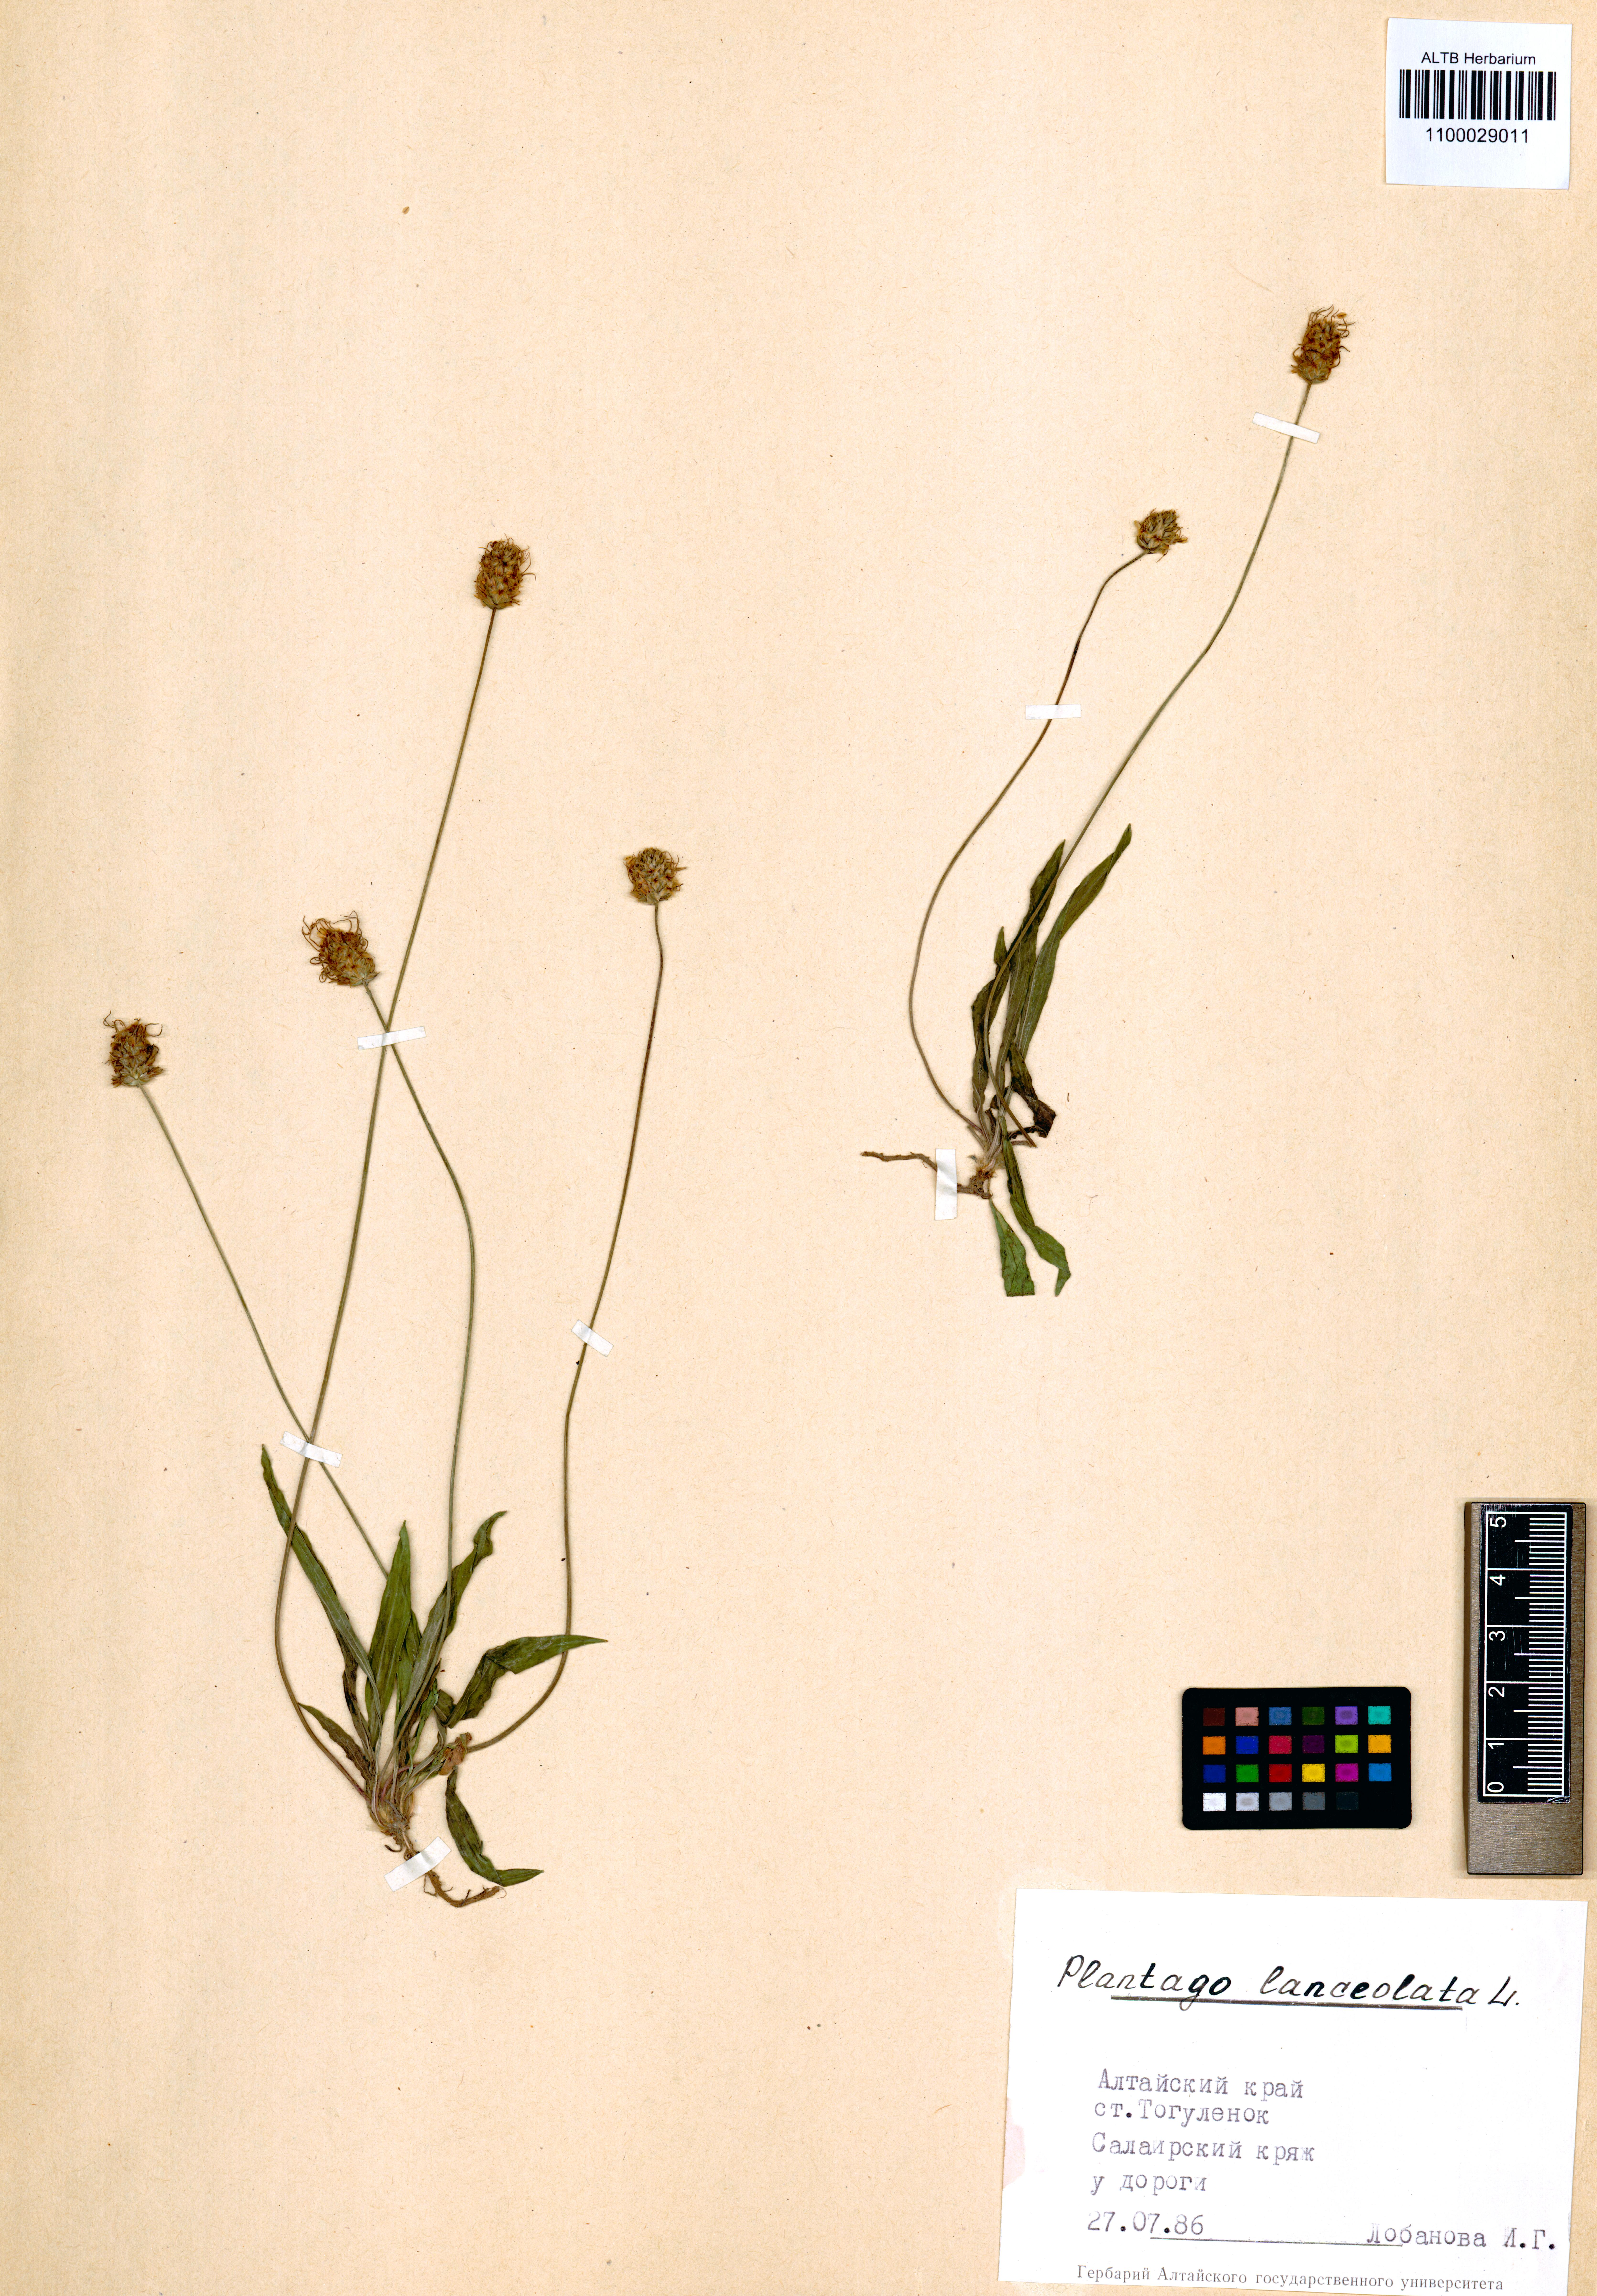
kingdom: Plantae
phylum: Tracheophyta
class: Magnoliopsida
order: Lamiales
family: Plantaginaceae
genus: Plantago
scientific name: Plantago lanceolata
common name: Ribwort plantain
